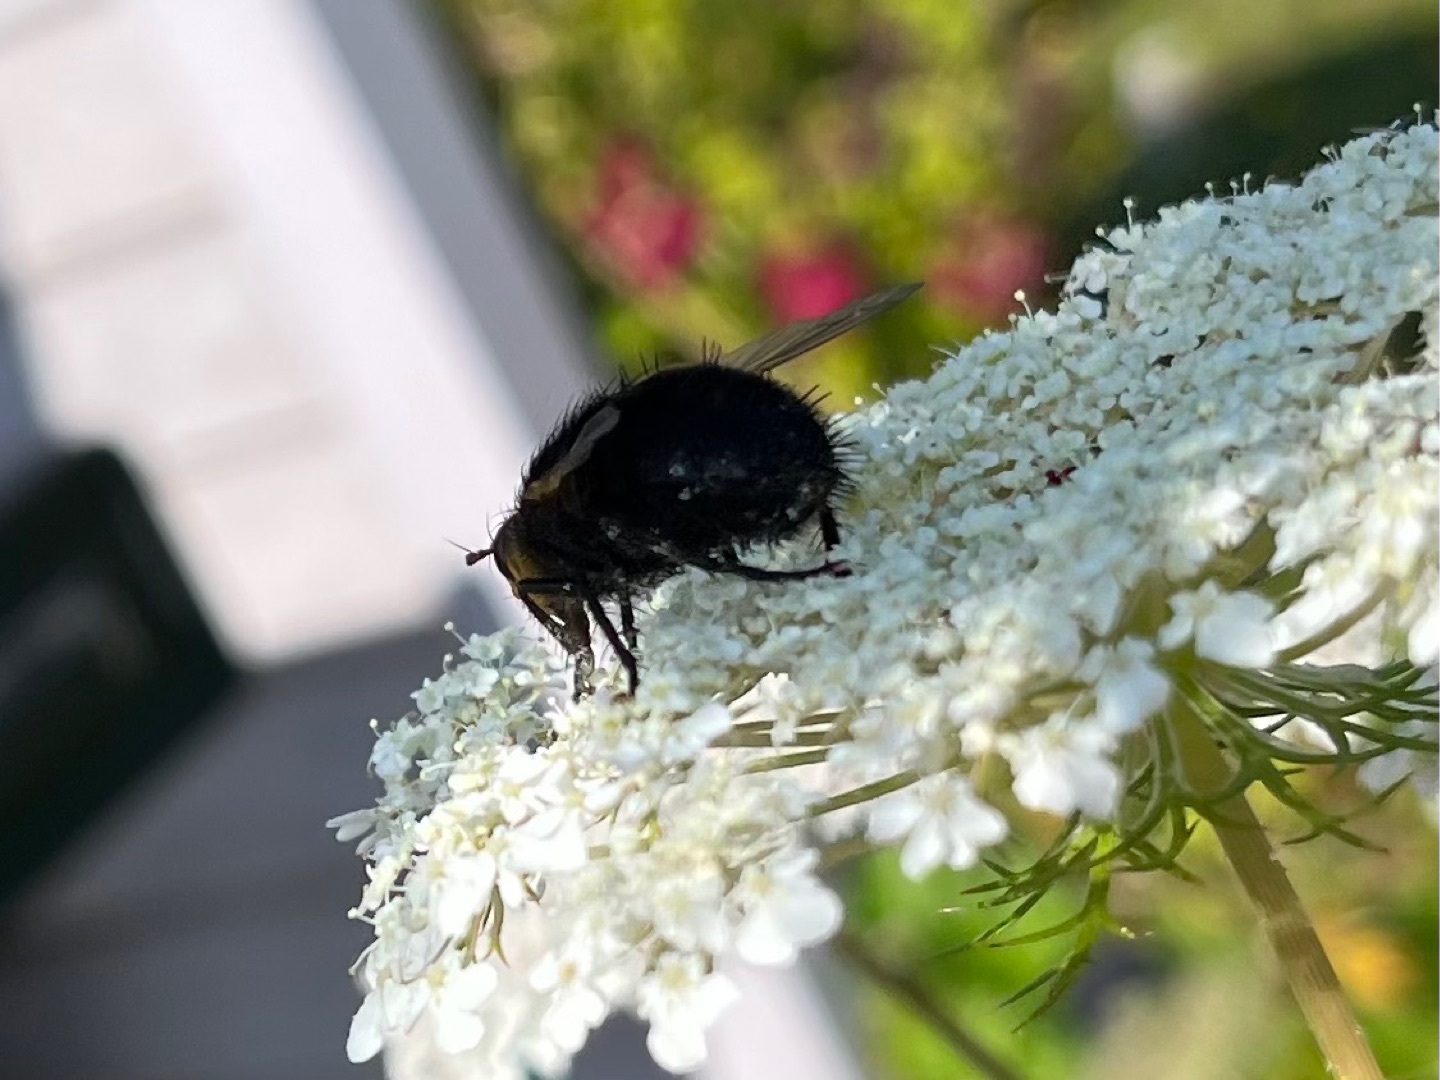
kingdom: Animalia
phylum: Arthropoda
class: Insecta
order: Diptera
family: Tachinidae
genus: Tachina
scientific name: Tachina grossa
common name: Kæmpefluen Harald
